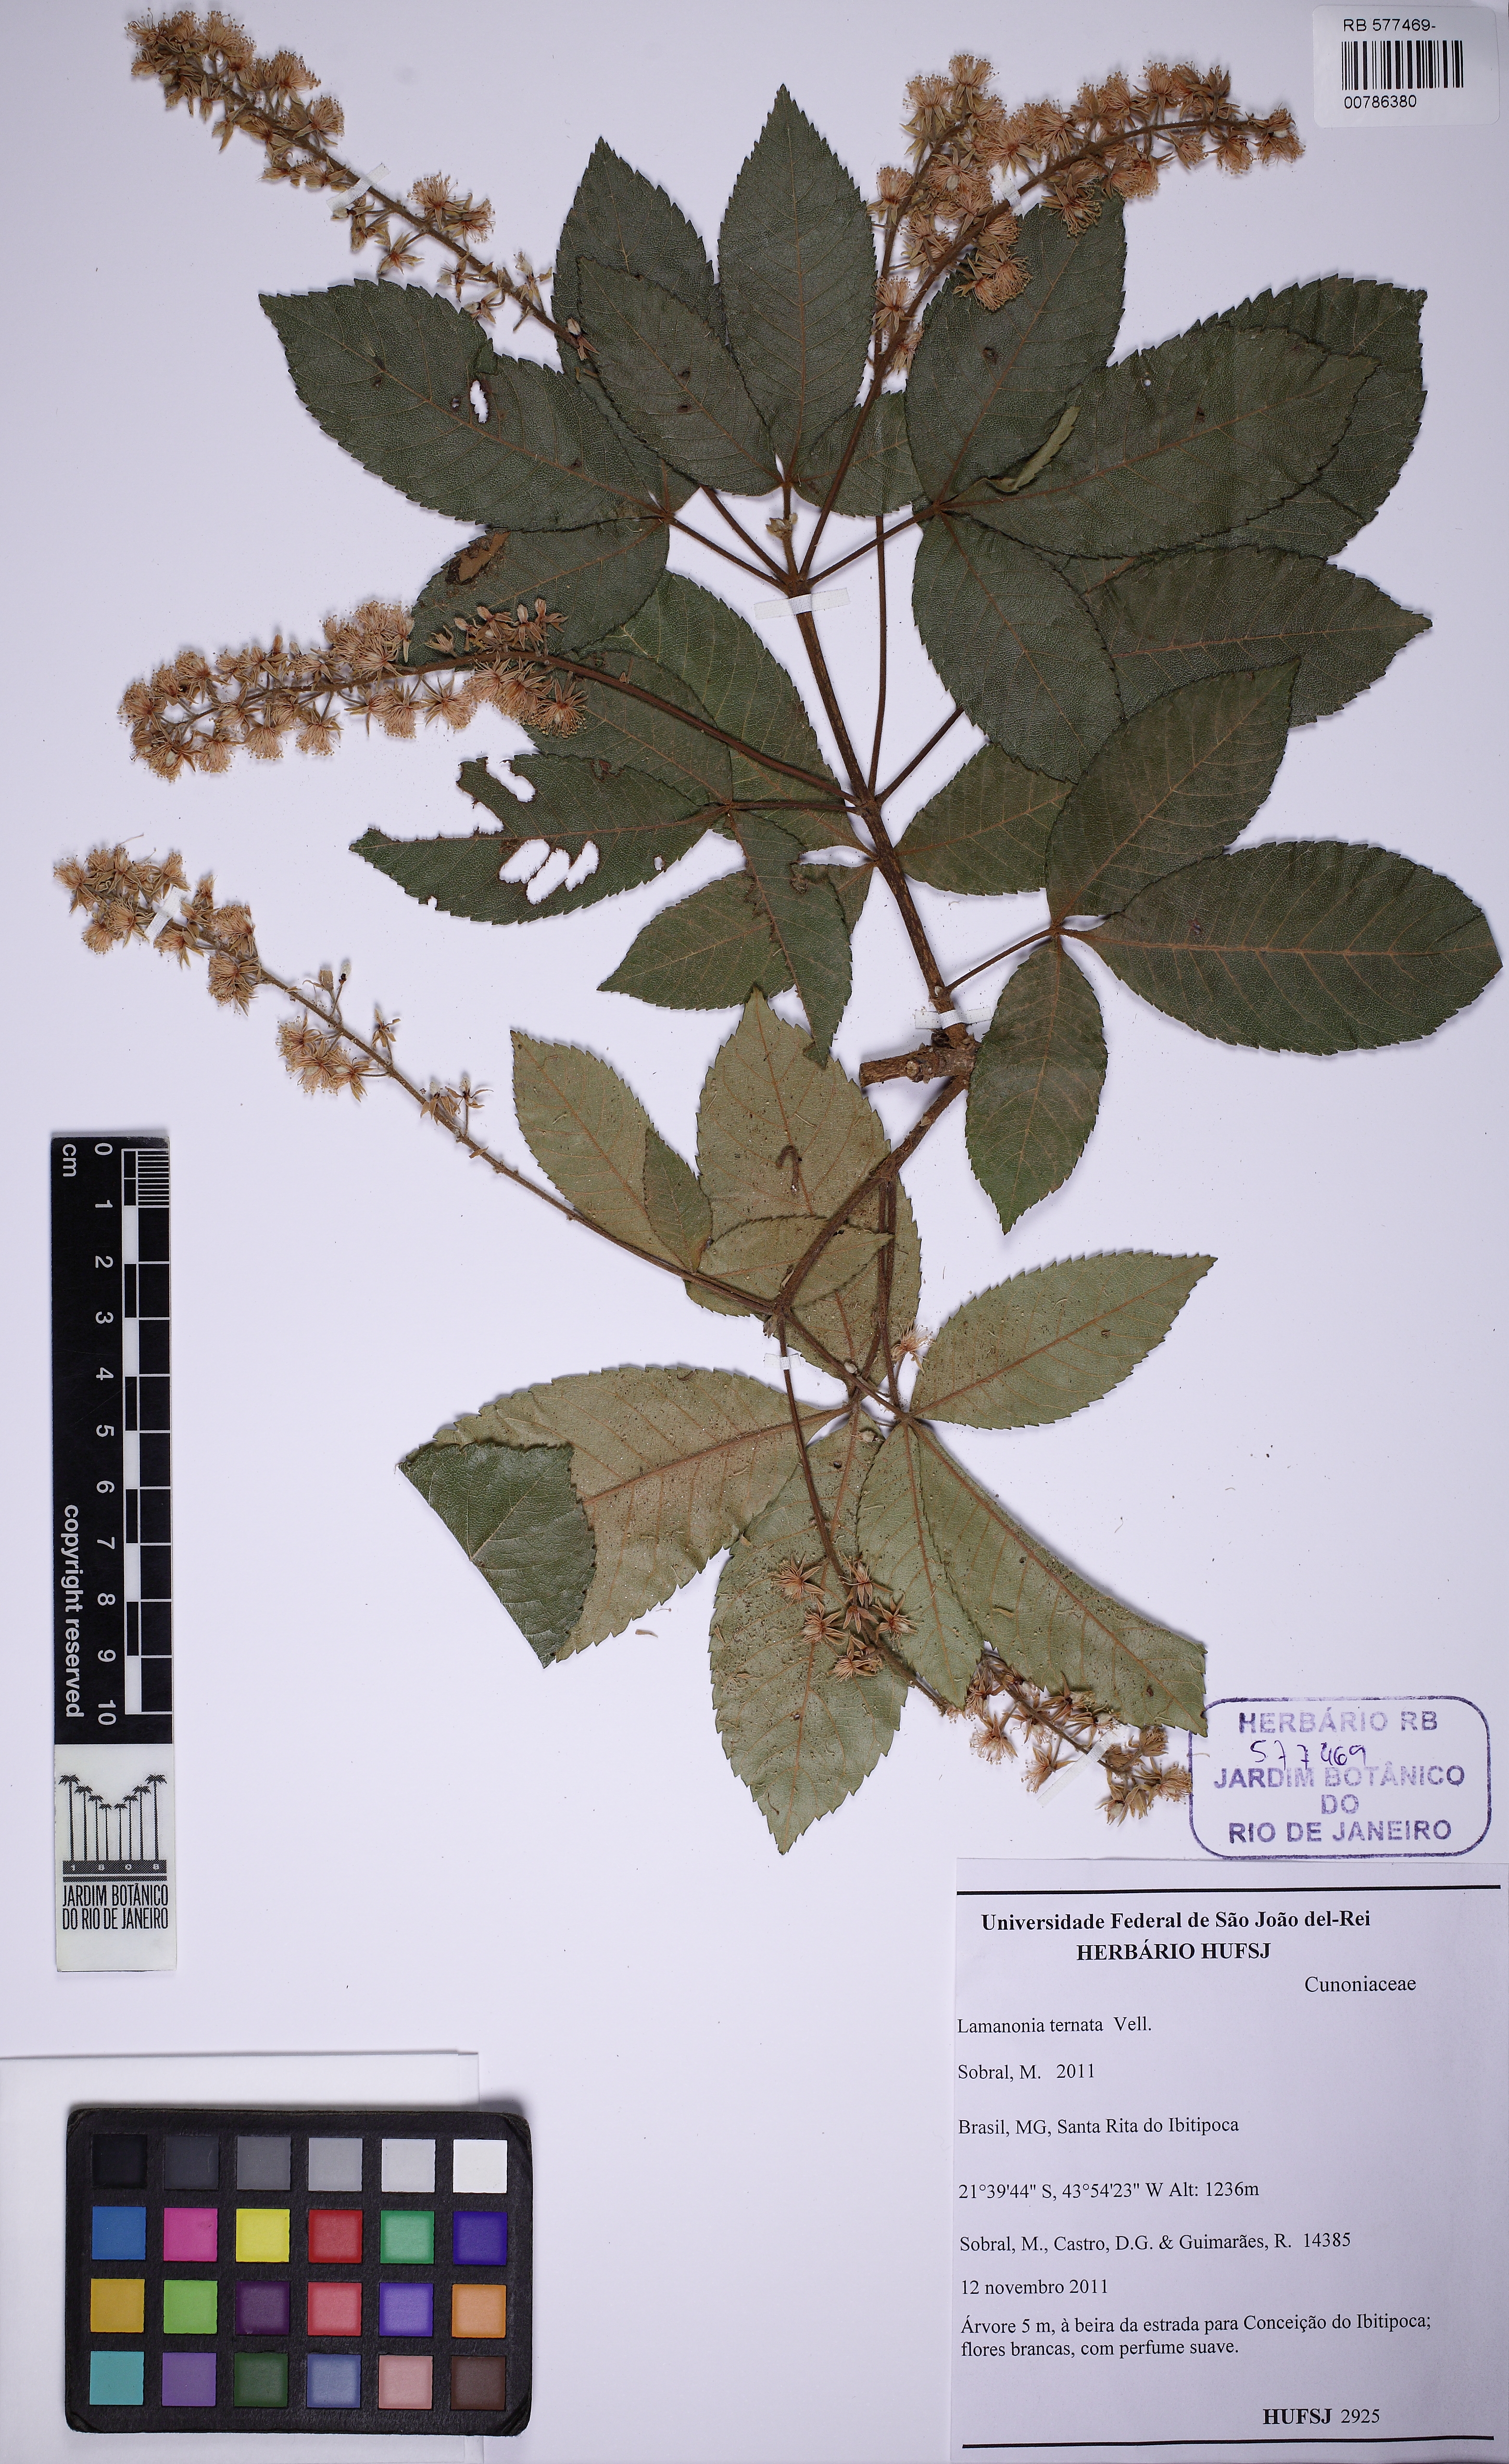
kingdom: Plantae
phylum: Tracheophyta
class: Magnoliopsida
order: Oxalidales
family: Cunoniaceae
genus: Lamanonia
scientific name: Lamanonia ternata
